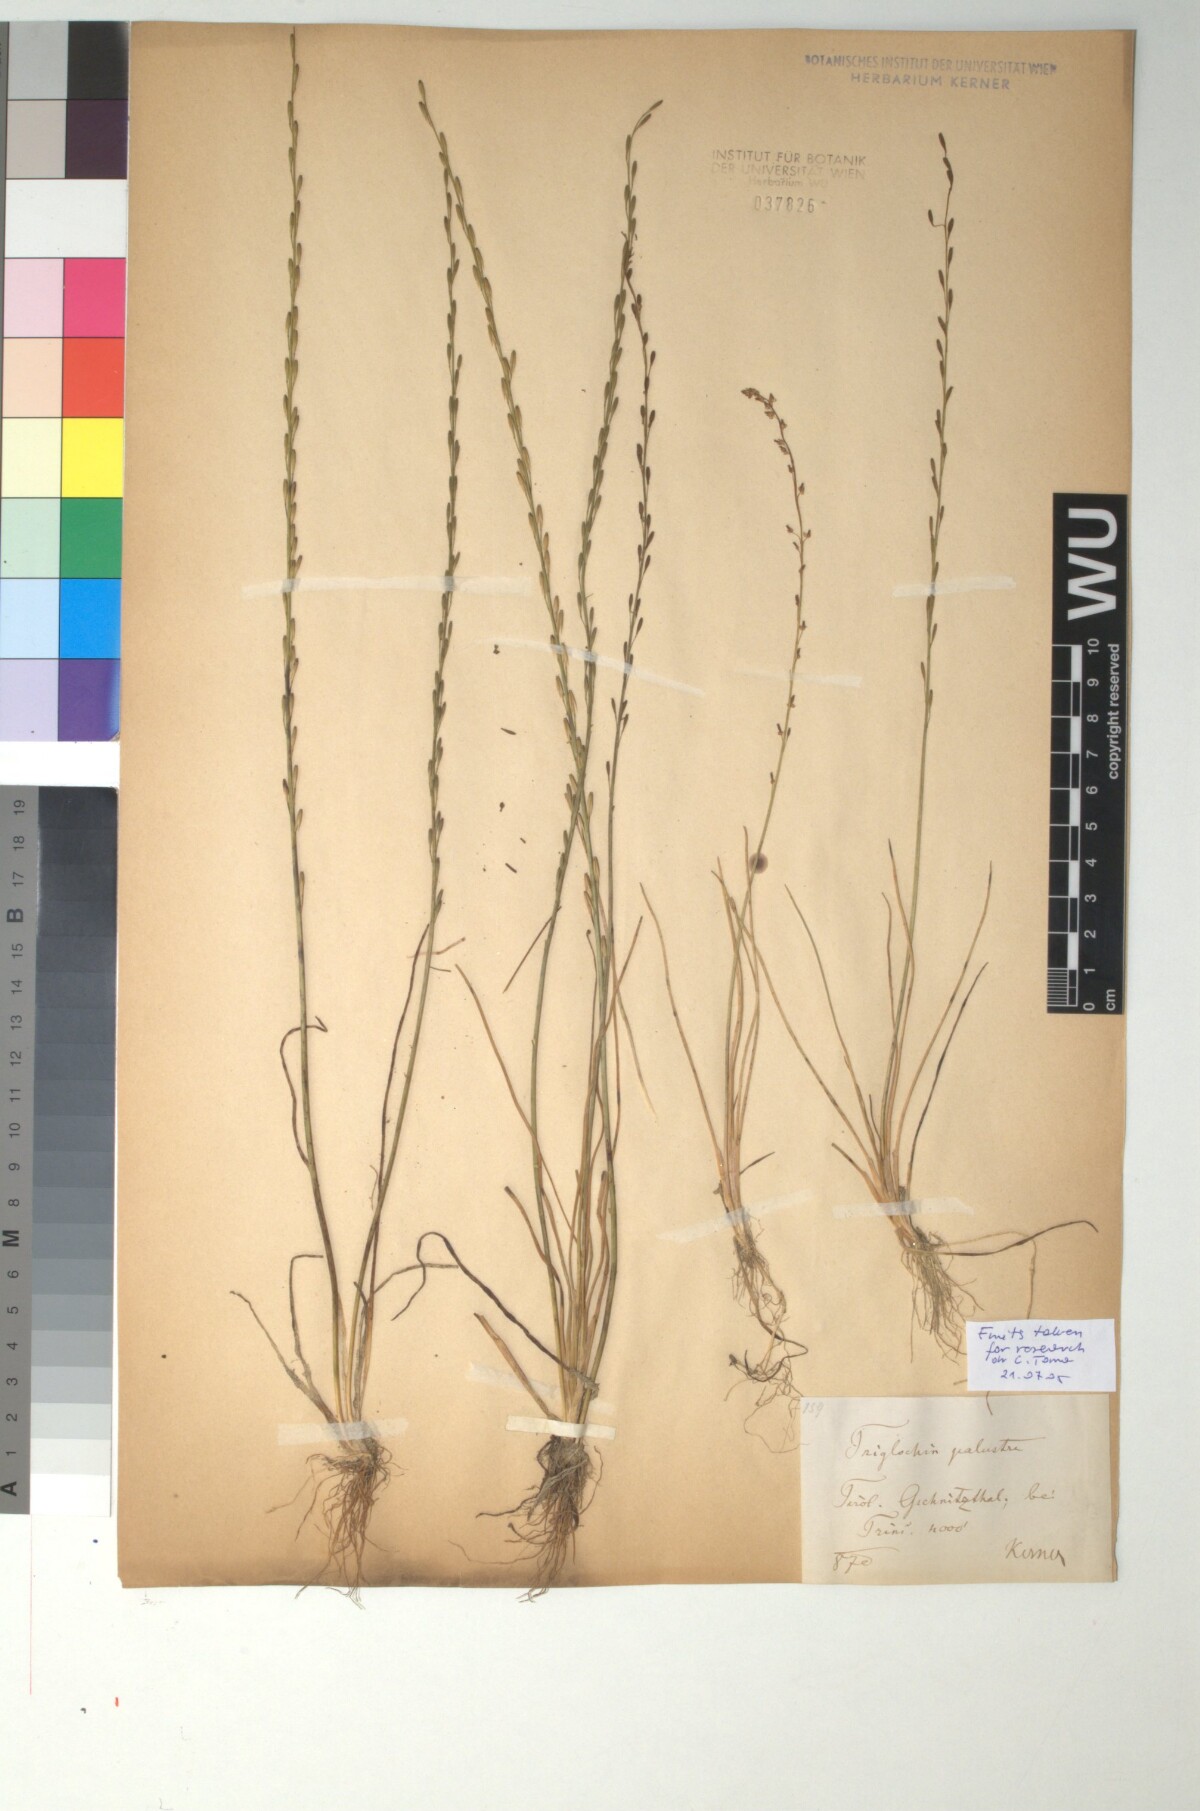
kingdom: Plantae
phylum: Tracheophyta
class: Liliopsida
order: Alismatales
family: Juncaginaceae
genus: Triglochin
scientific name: Triglochin palustris
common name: Marsh arrowgrass
